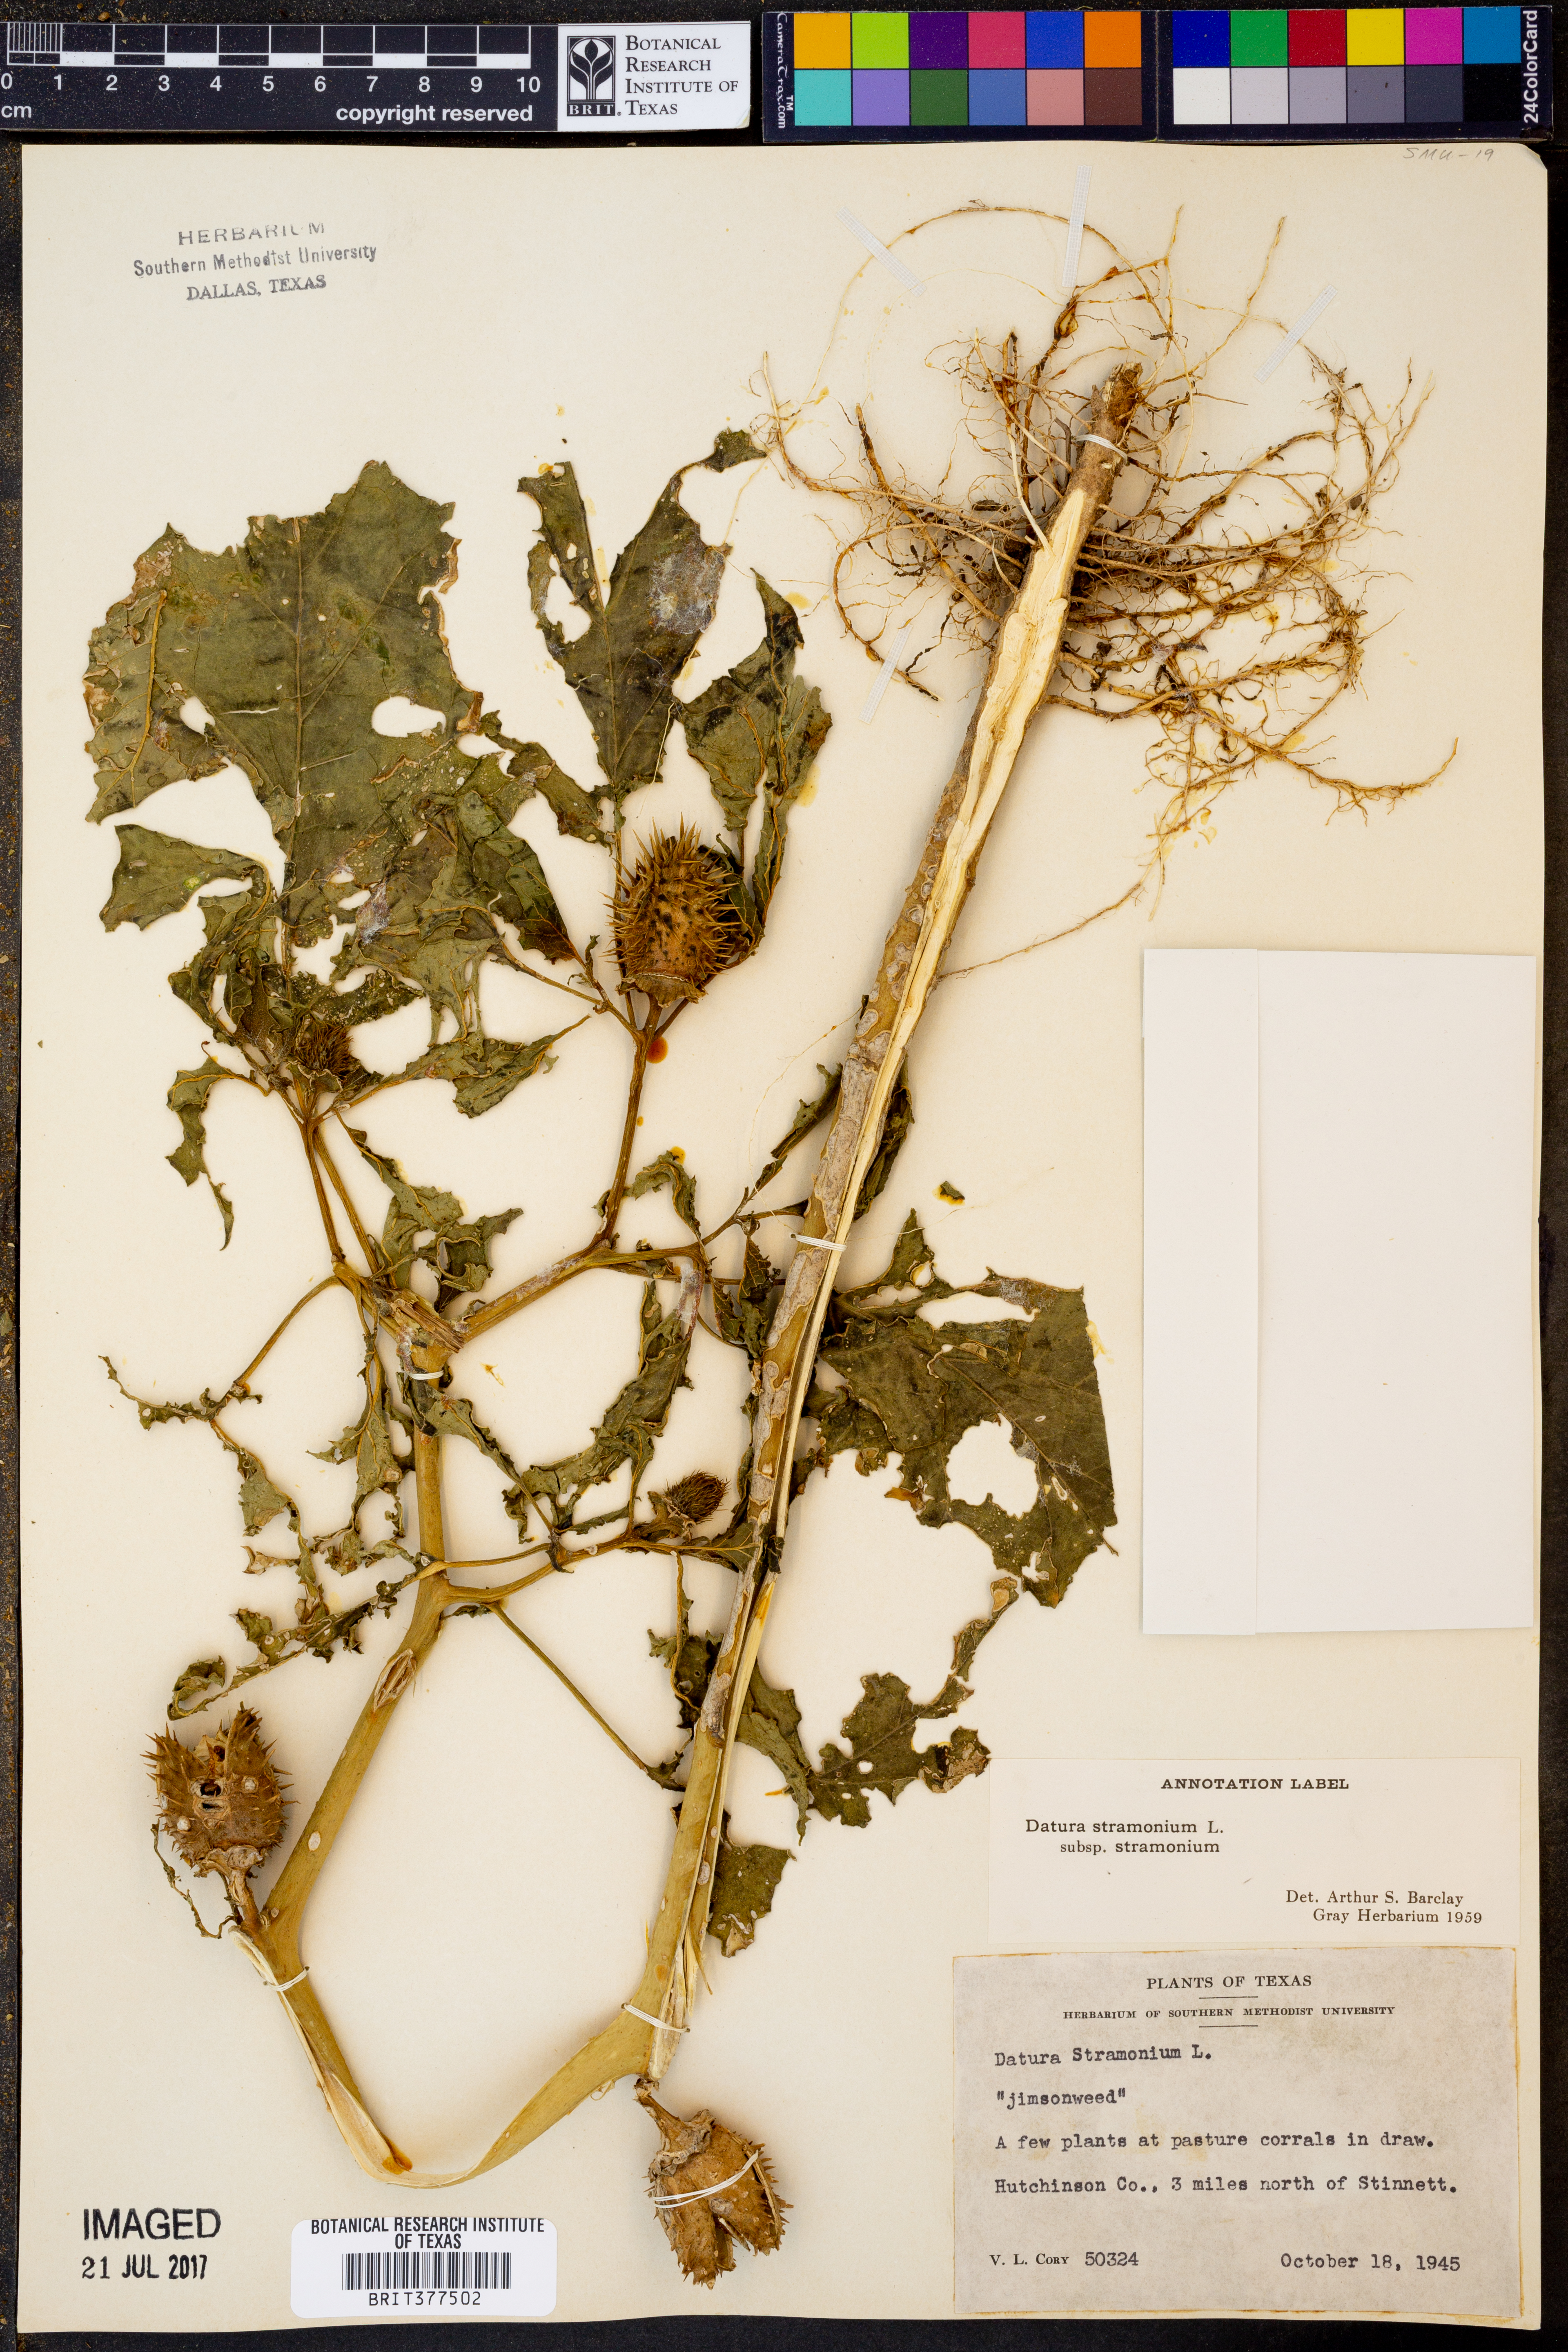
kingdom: Plantae
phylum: Tracheophyta
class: Magnoliopsida
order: Solanales
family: Solanaceae
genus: Datura
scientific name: Datura stramonium
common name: Thorn-apple
